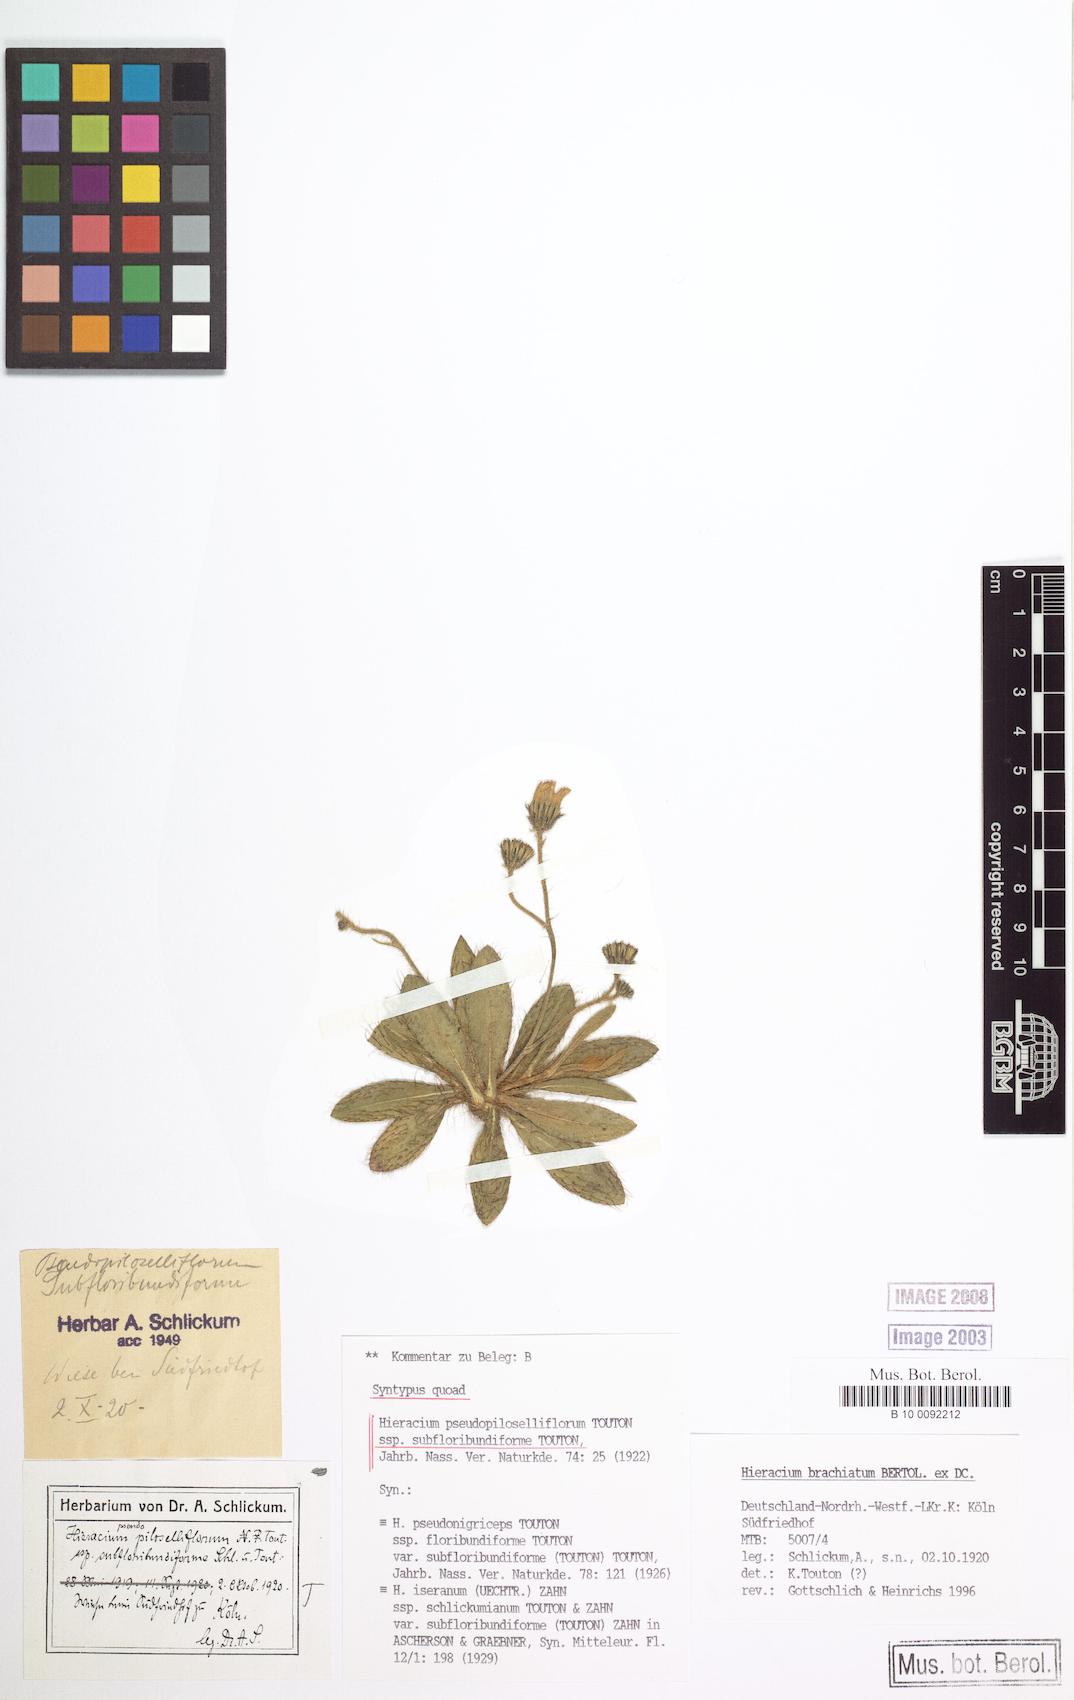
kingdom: Plantae
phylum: Tracheophyta
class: Magnoliopsida
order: Asterales
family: Asteraceae
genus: Pilosella
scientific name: Pilosella piloselliflora
